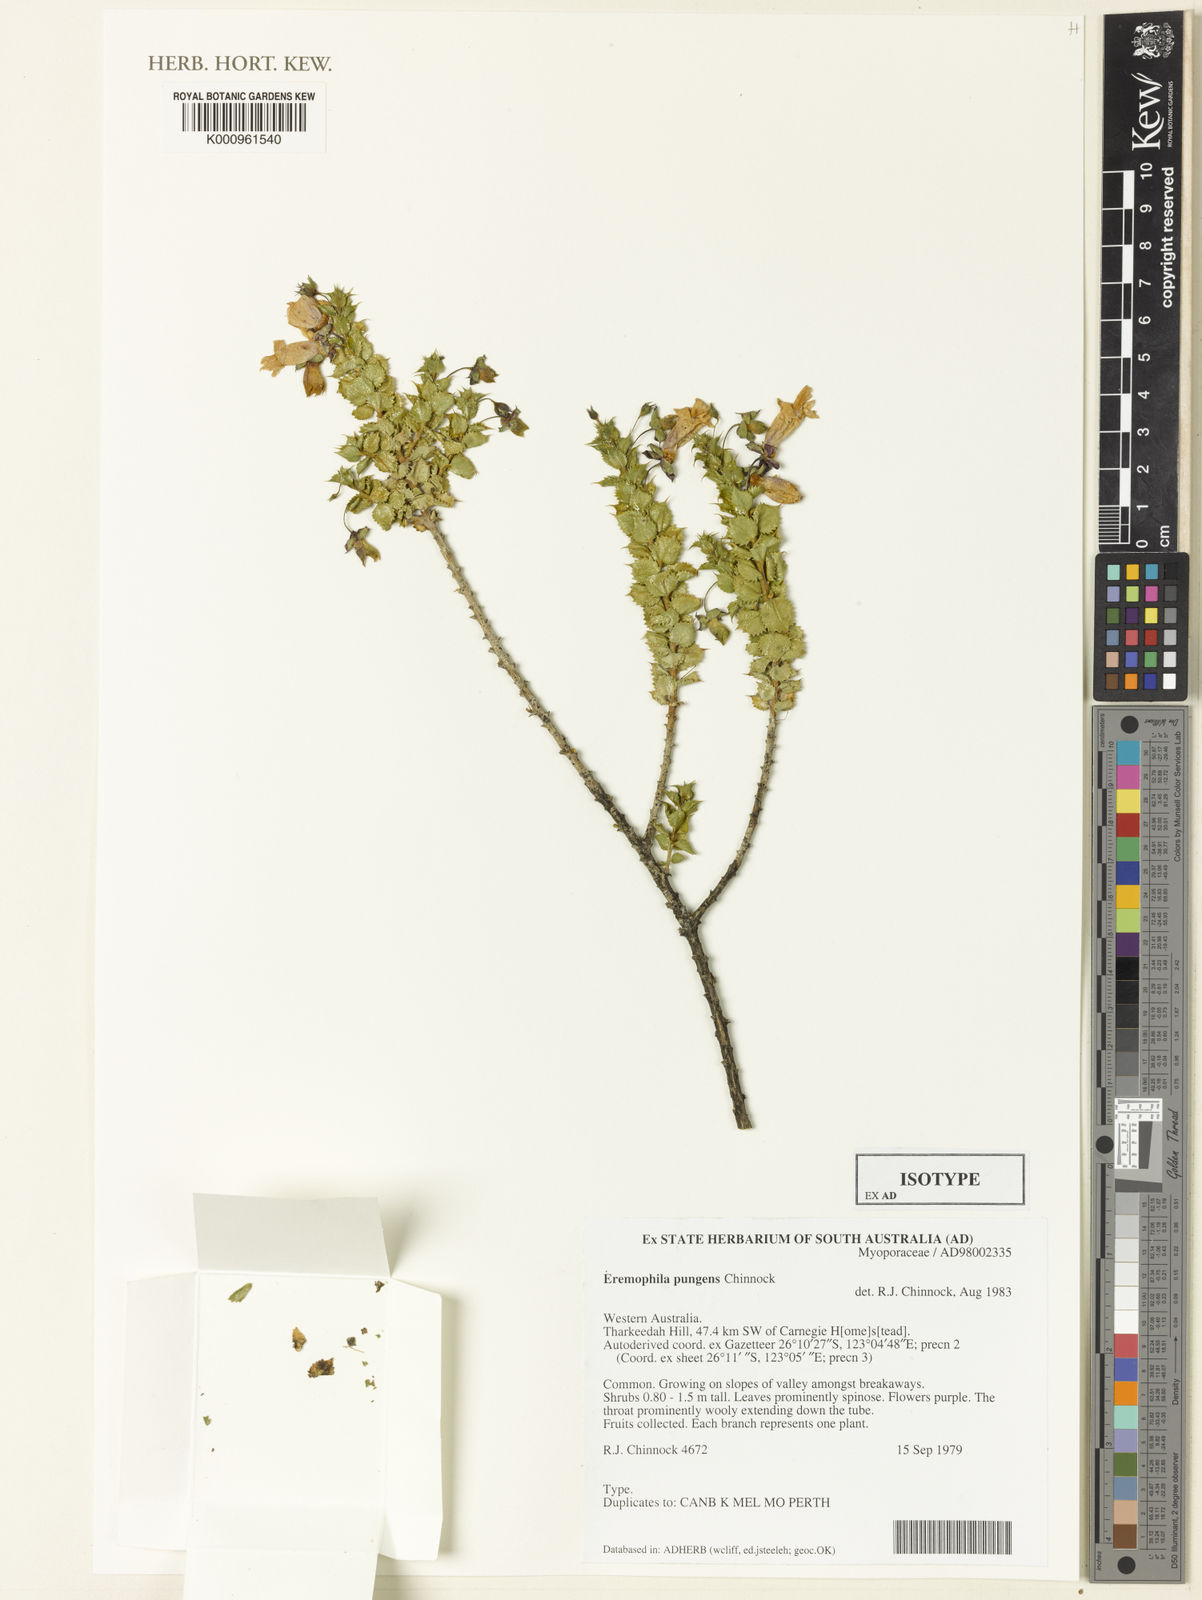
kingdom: Plantae
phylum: Tracheophyta
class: Magnoliopsida
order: Lamiales
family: Scrophulariaceae
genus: Eremophila
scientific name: Eremophila pungens
